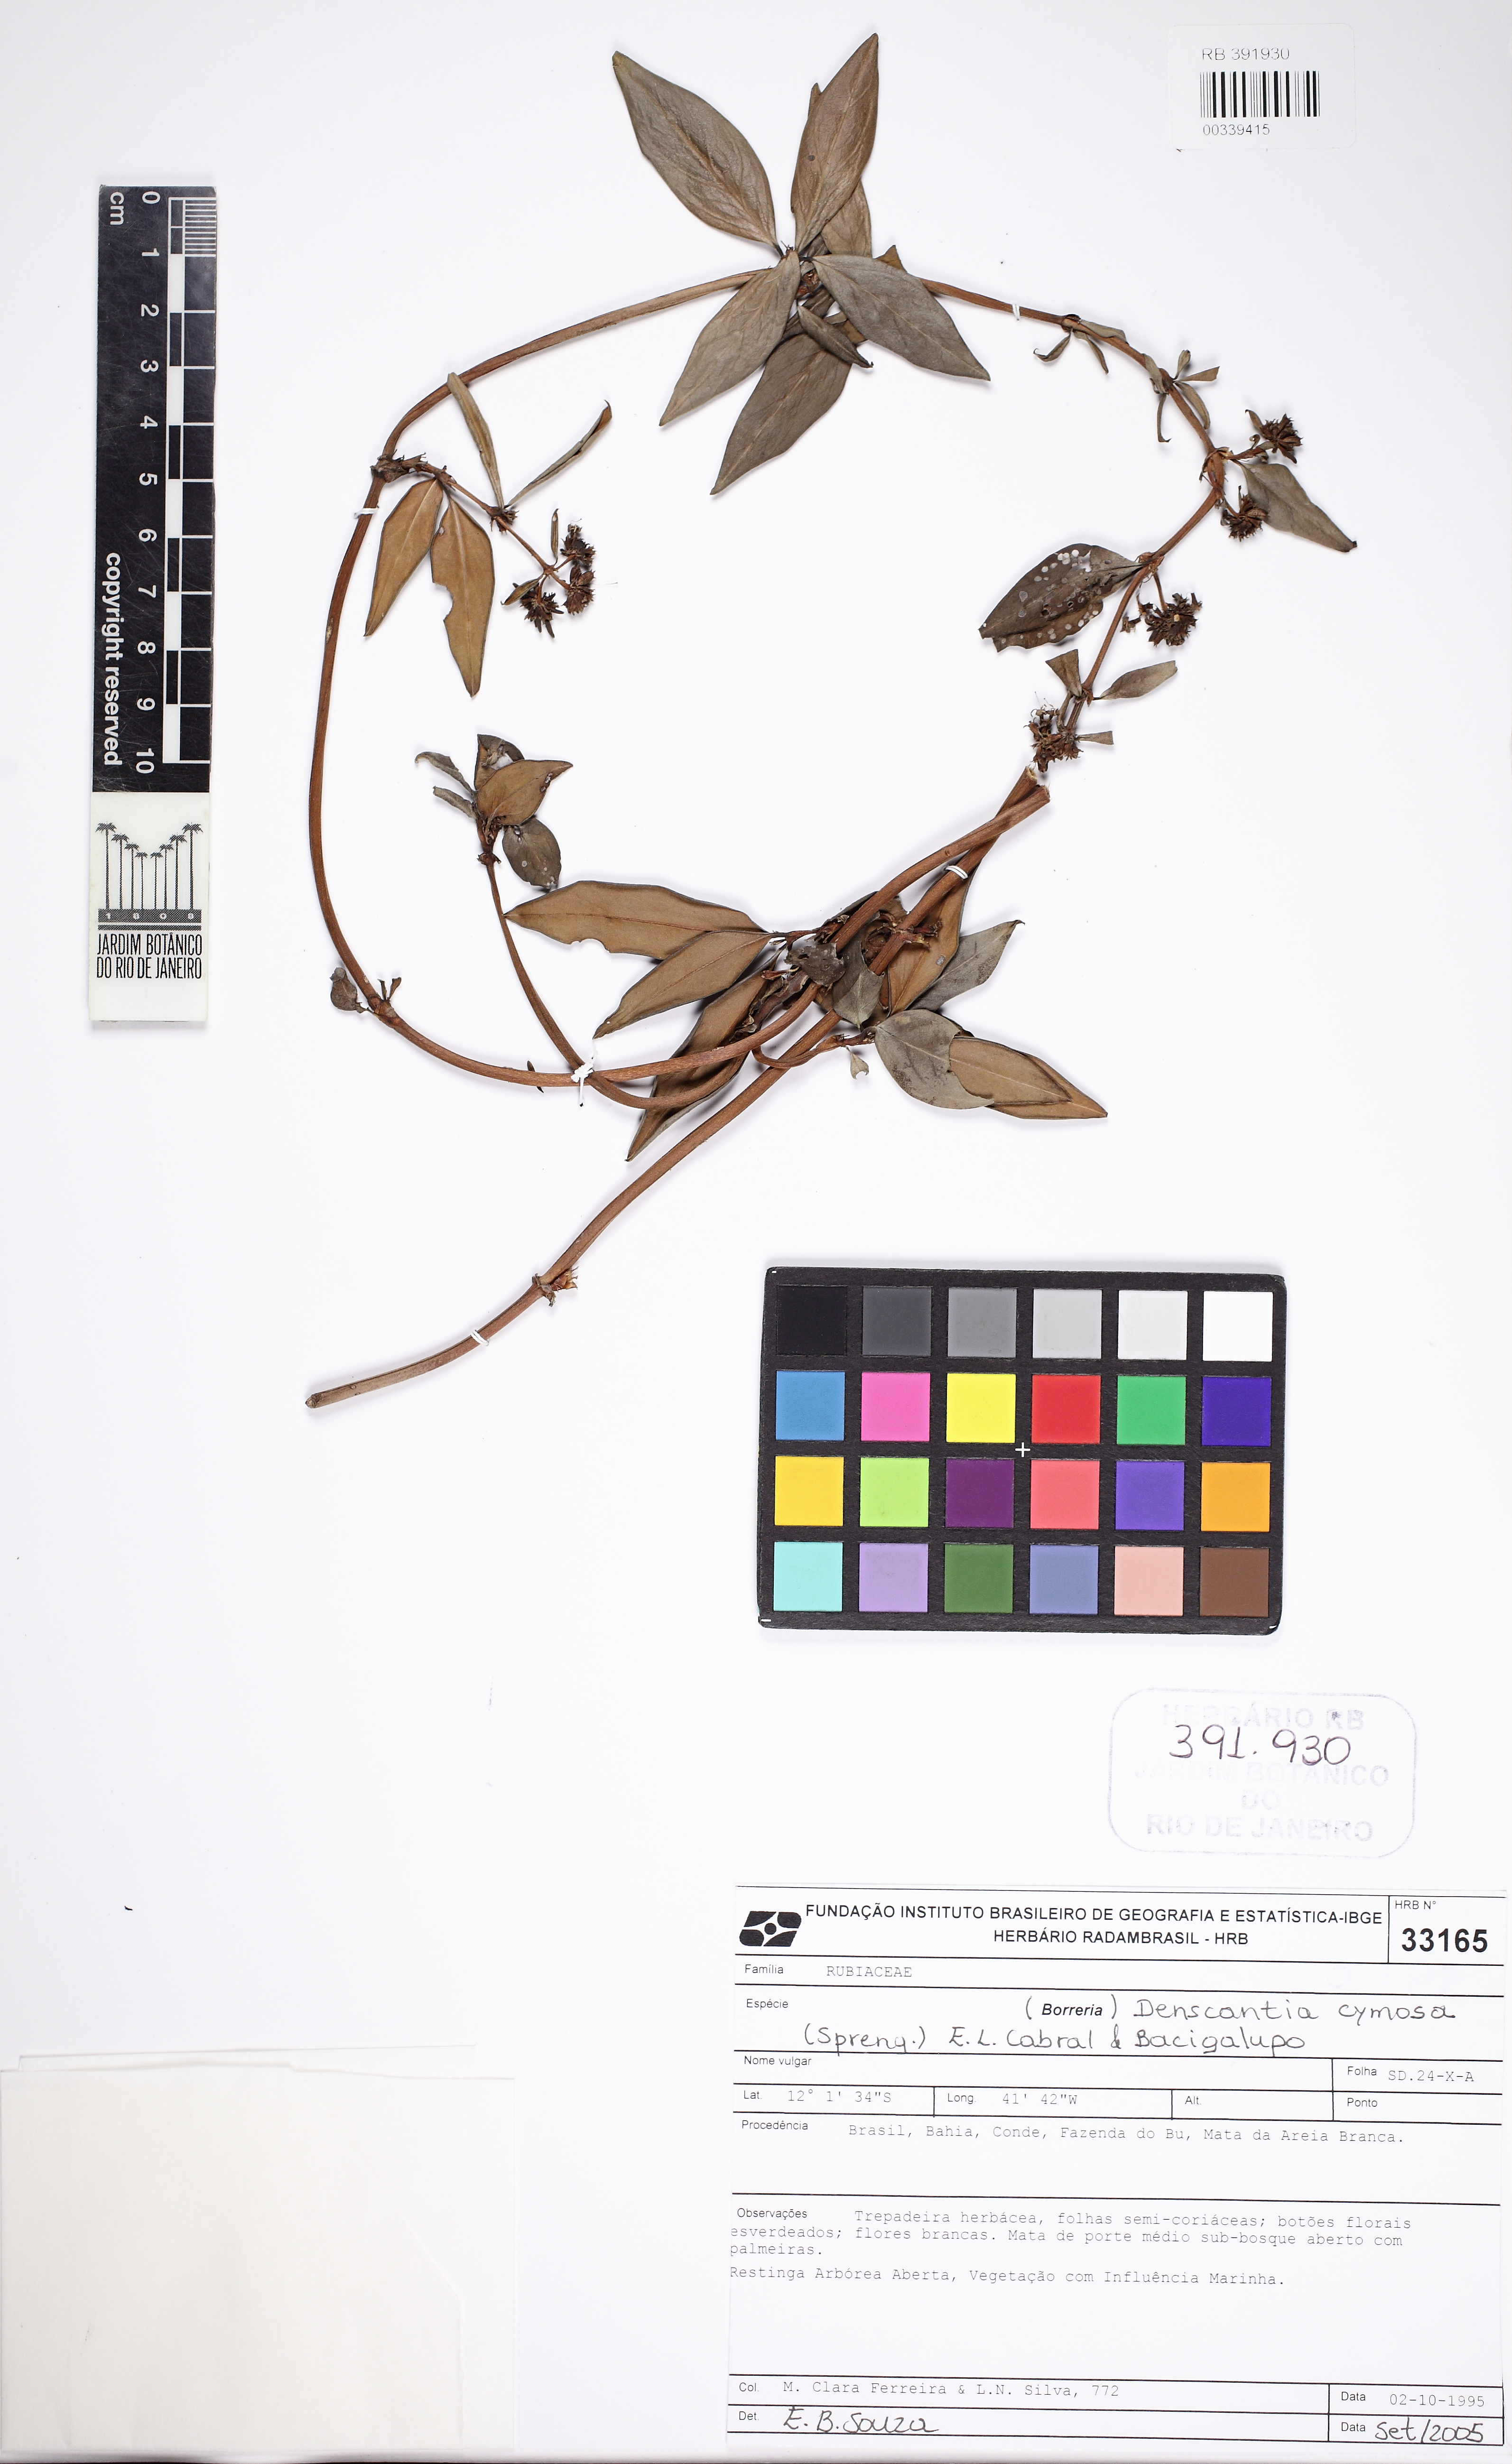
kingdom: Plantae
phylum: Tracheophyta
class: Magnoliopsida
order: Gentianales
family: Rubiaceae
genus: Denscantia
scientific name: Denscantia cymosa
